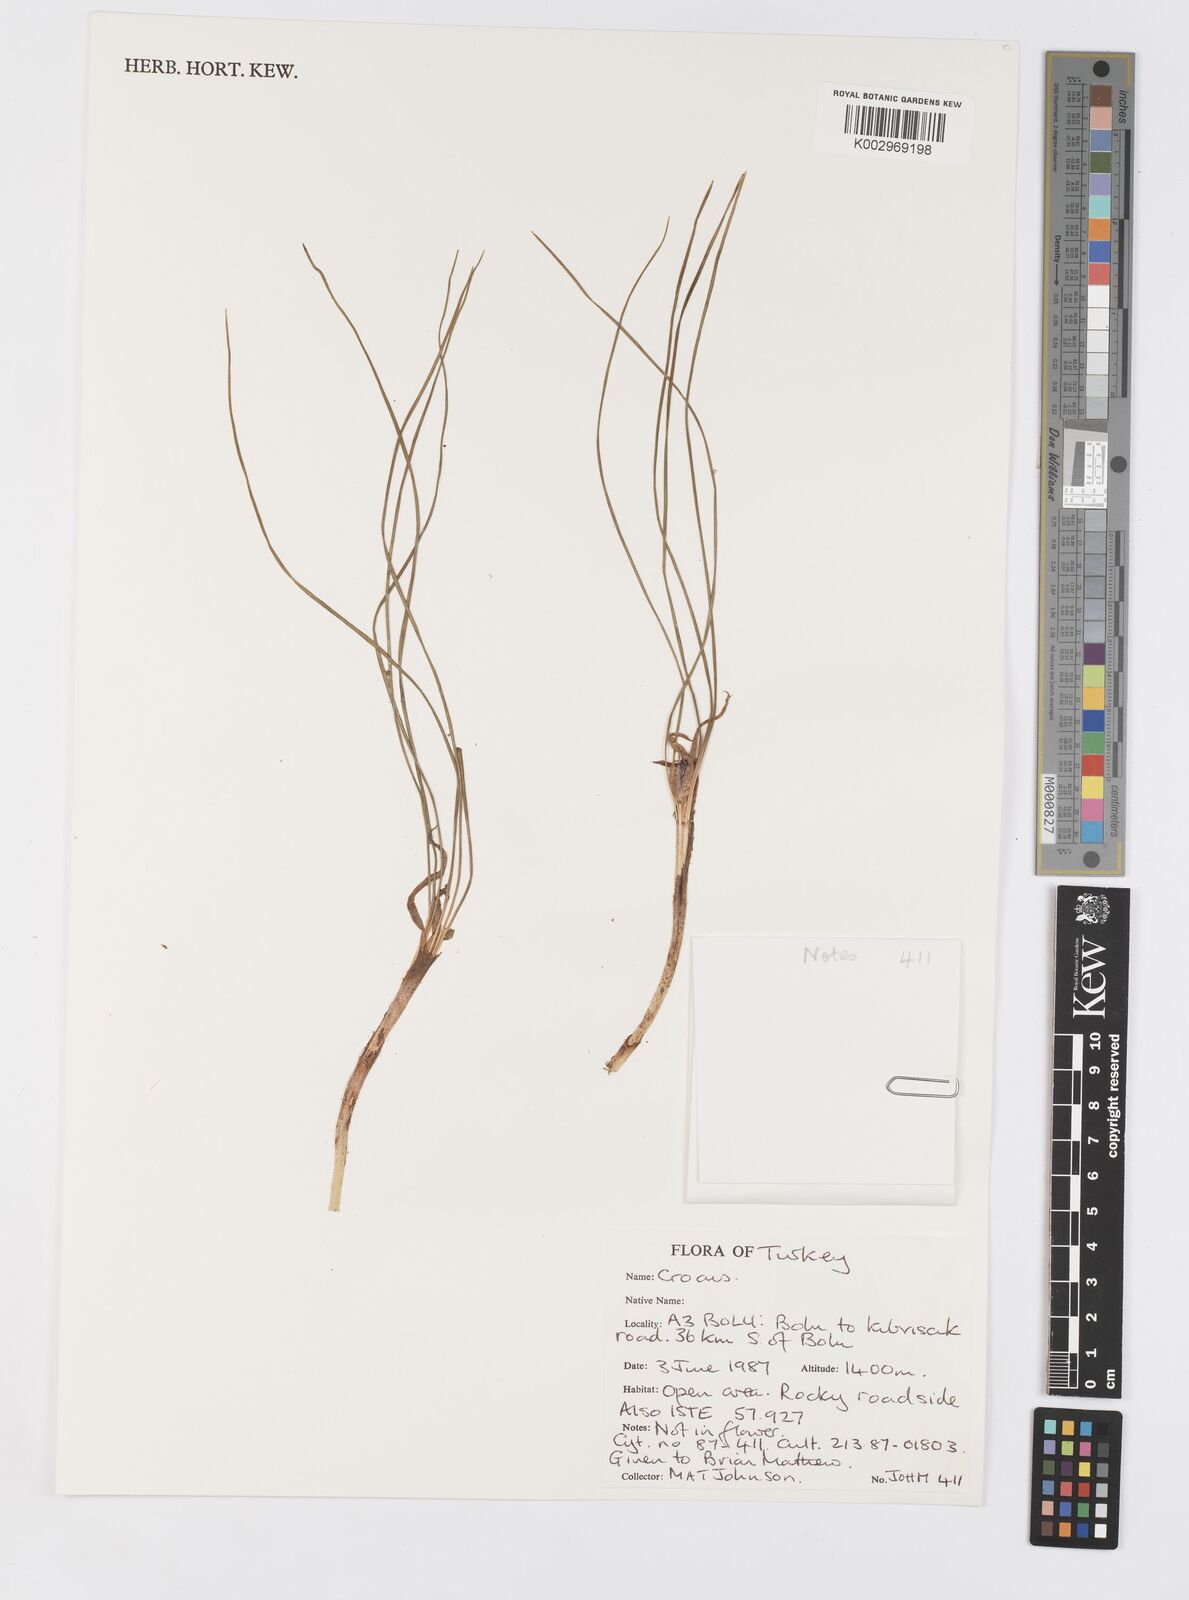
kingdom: Plantae
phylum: Tracheophyta
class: Liliopsida
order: Asparagales
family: Iridaceae
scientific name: Iridaceae
